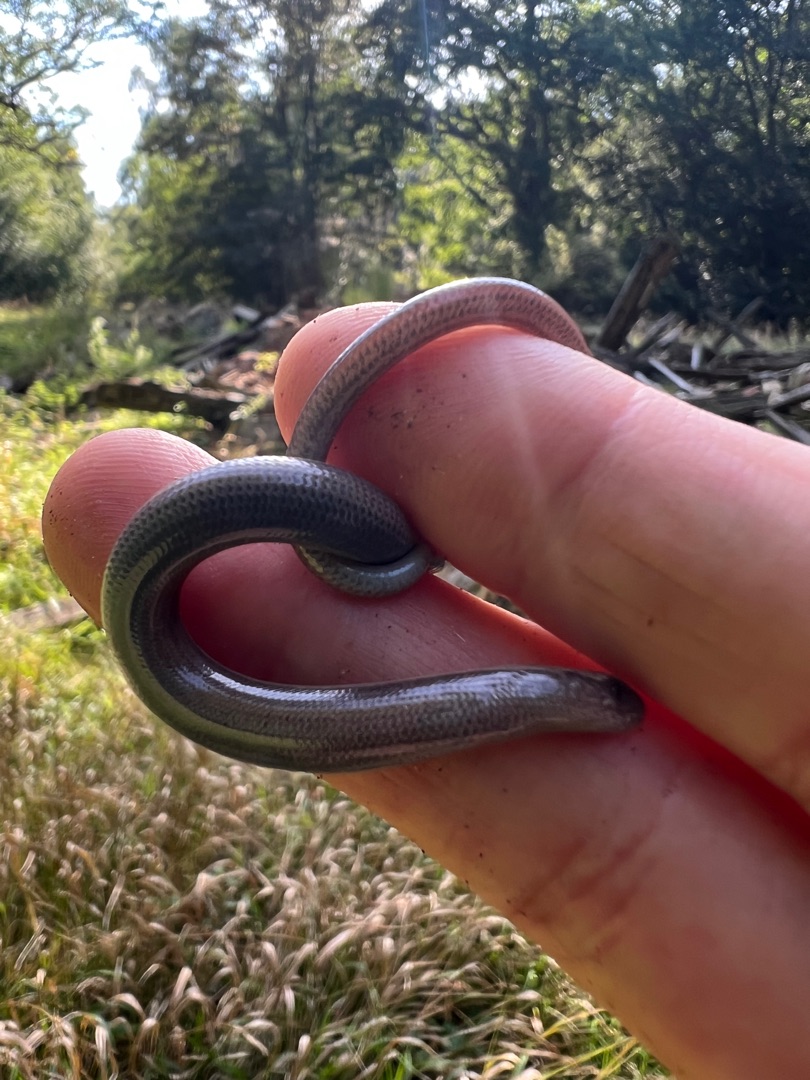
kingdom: Animalia
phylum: Chordata
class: Squamata
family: Anguidae
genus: Anguis
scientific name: Anguis fragilis
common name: Stålorm
